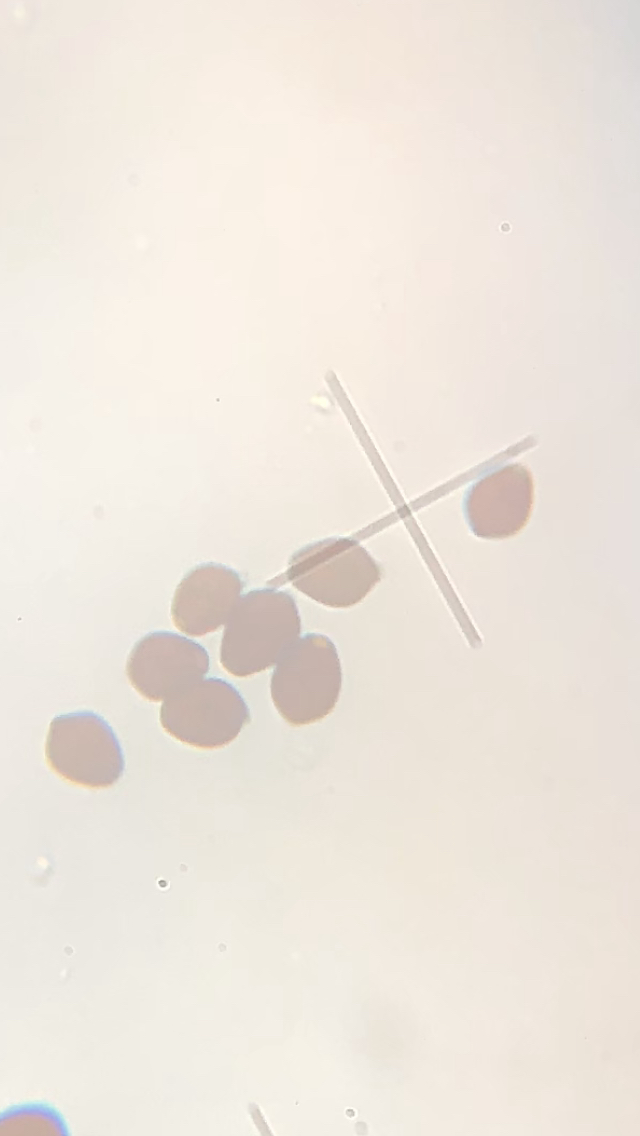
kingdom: Fungi
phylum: Basidiomycota
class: Agaricomycetes
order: Agaricales
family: Psathyrellaceae
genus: Coprinellus
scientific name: Coprinellus micaceus
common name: glimmer-blækhat
